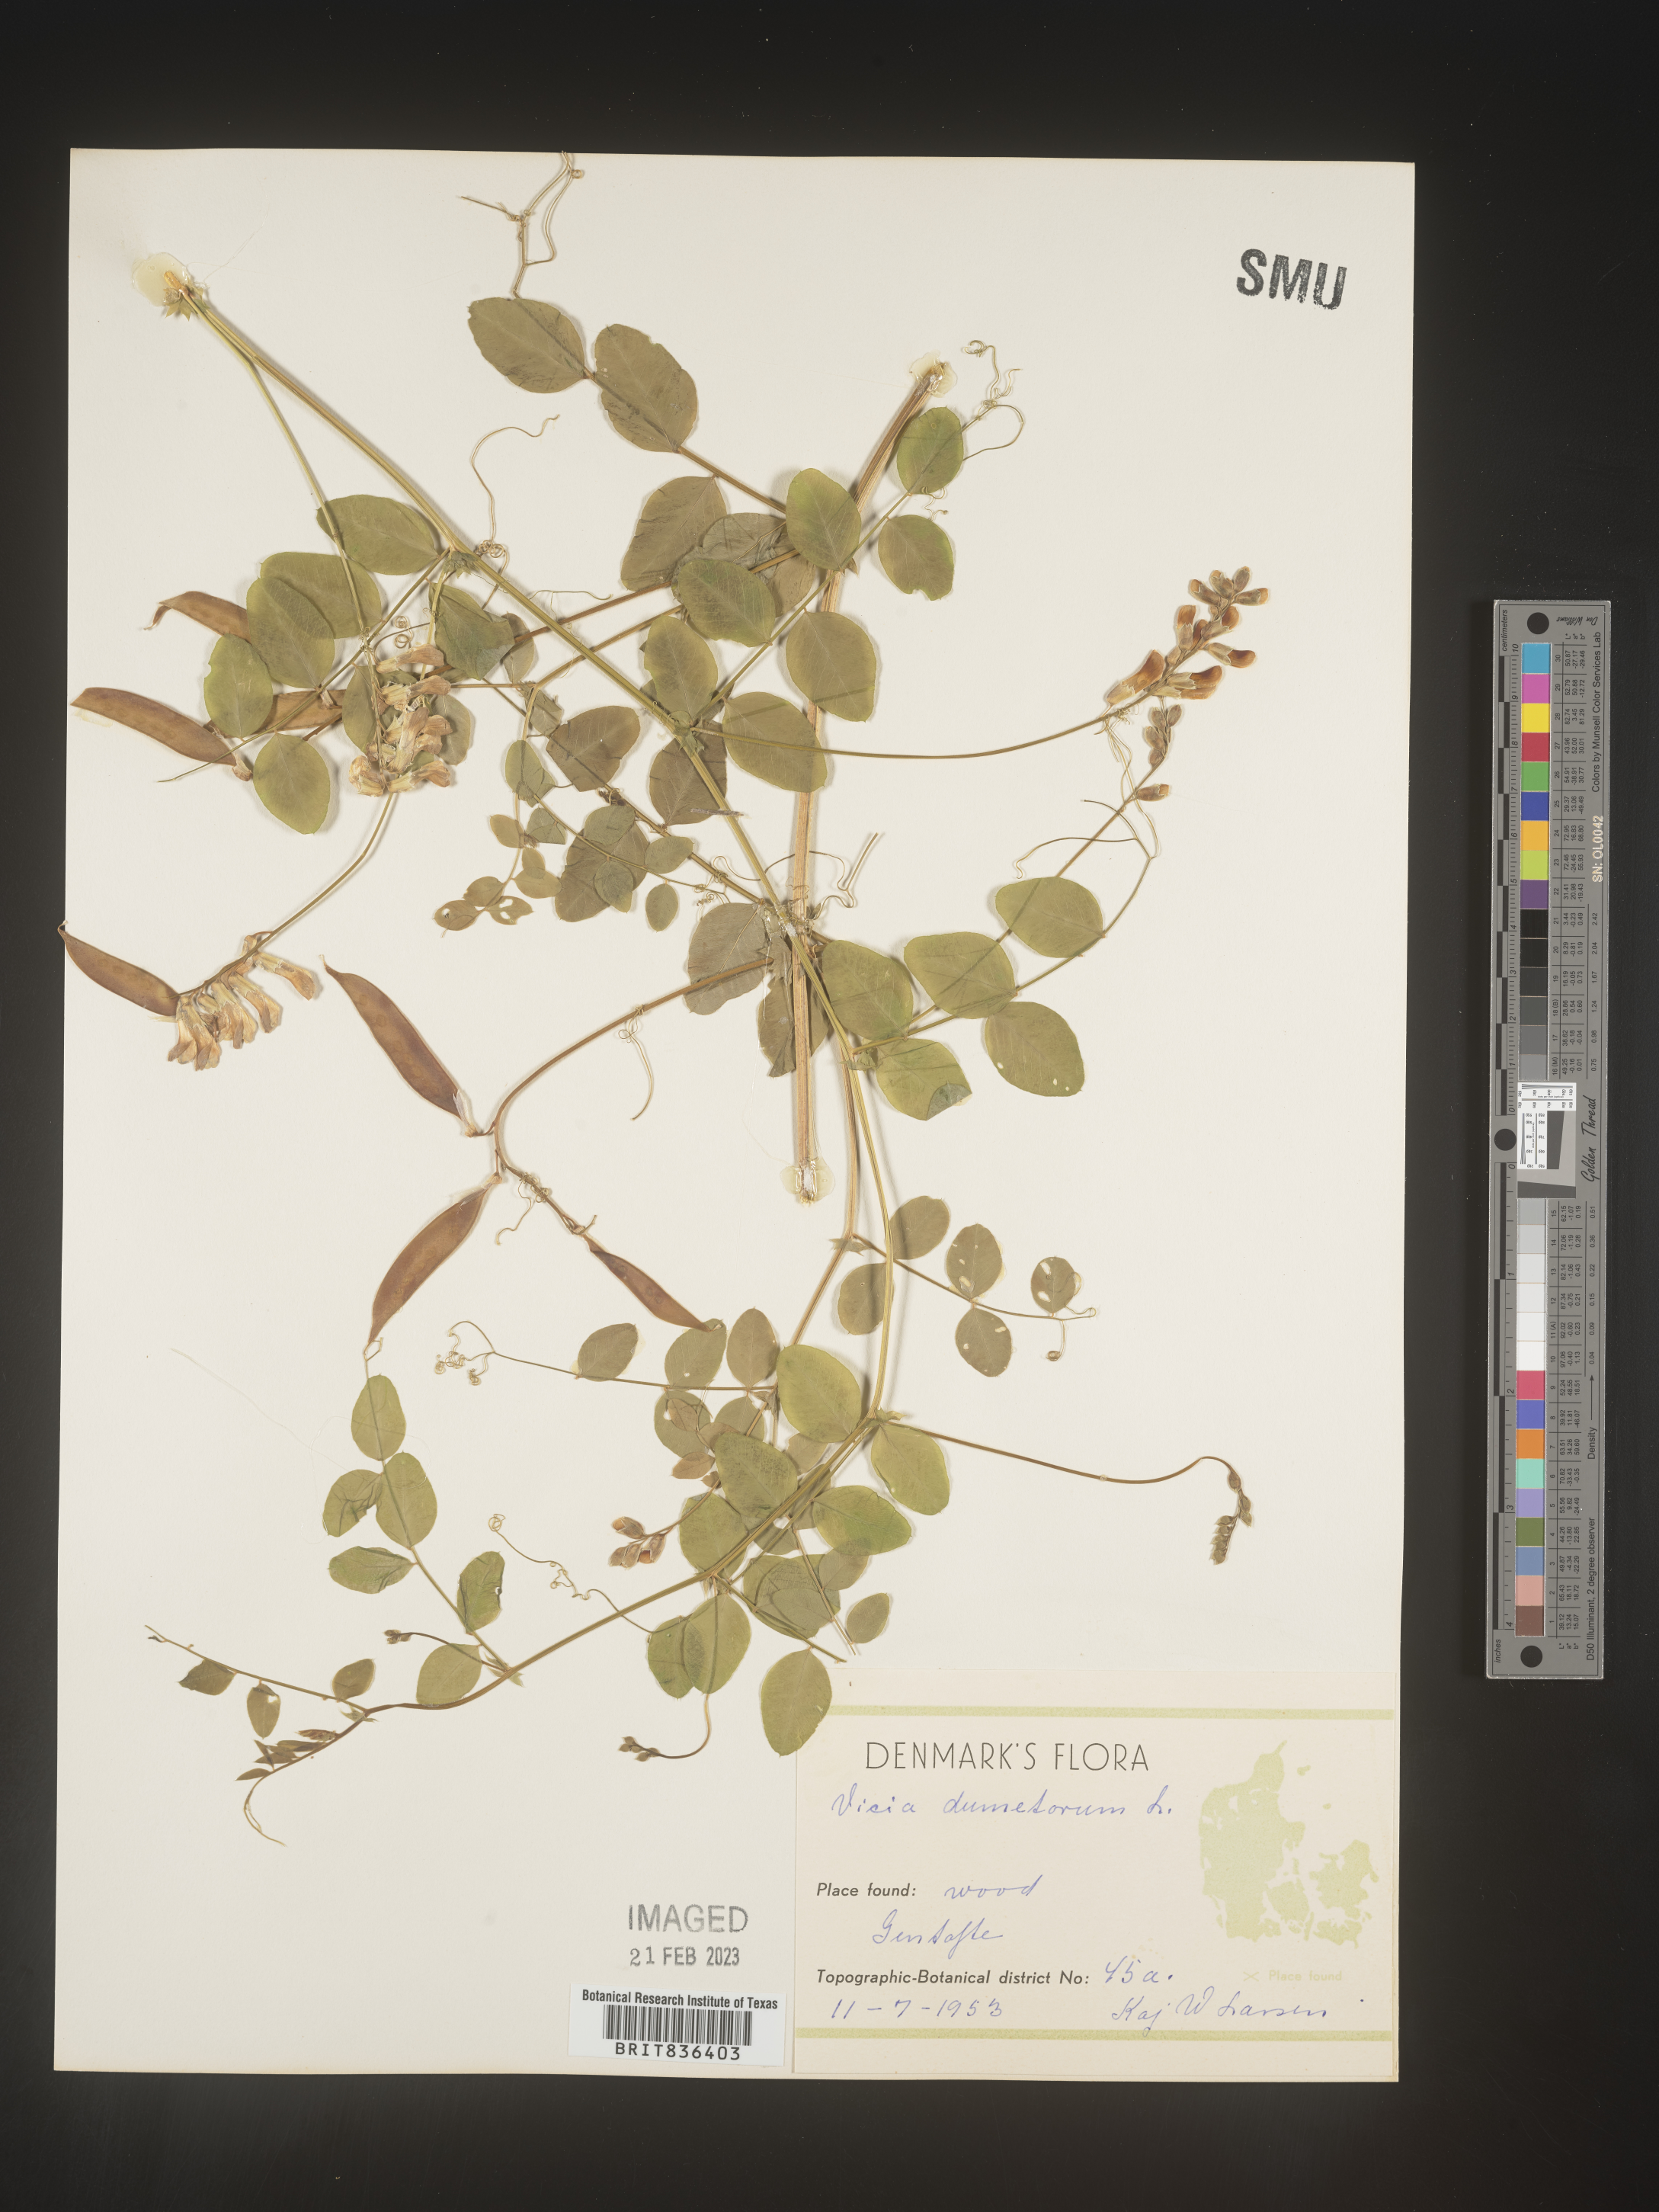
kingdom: Plantae
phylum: Tracheophyta
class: Magnoliopsida
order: Fabales
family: Fabaceae
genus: Vicia
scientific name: Vicia
